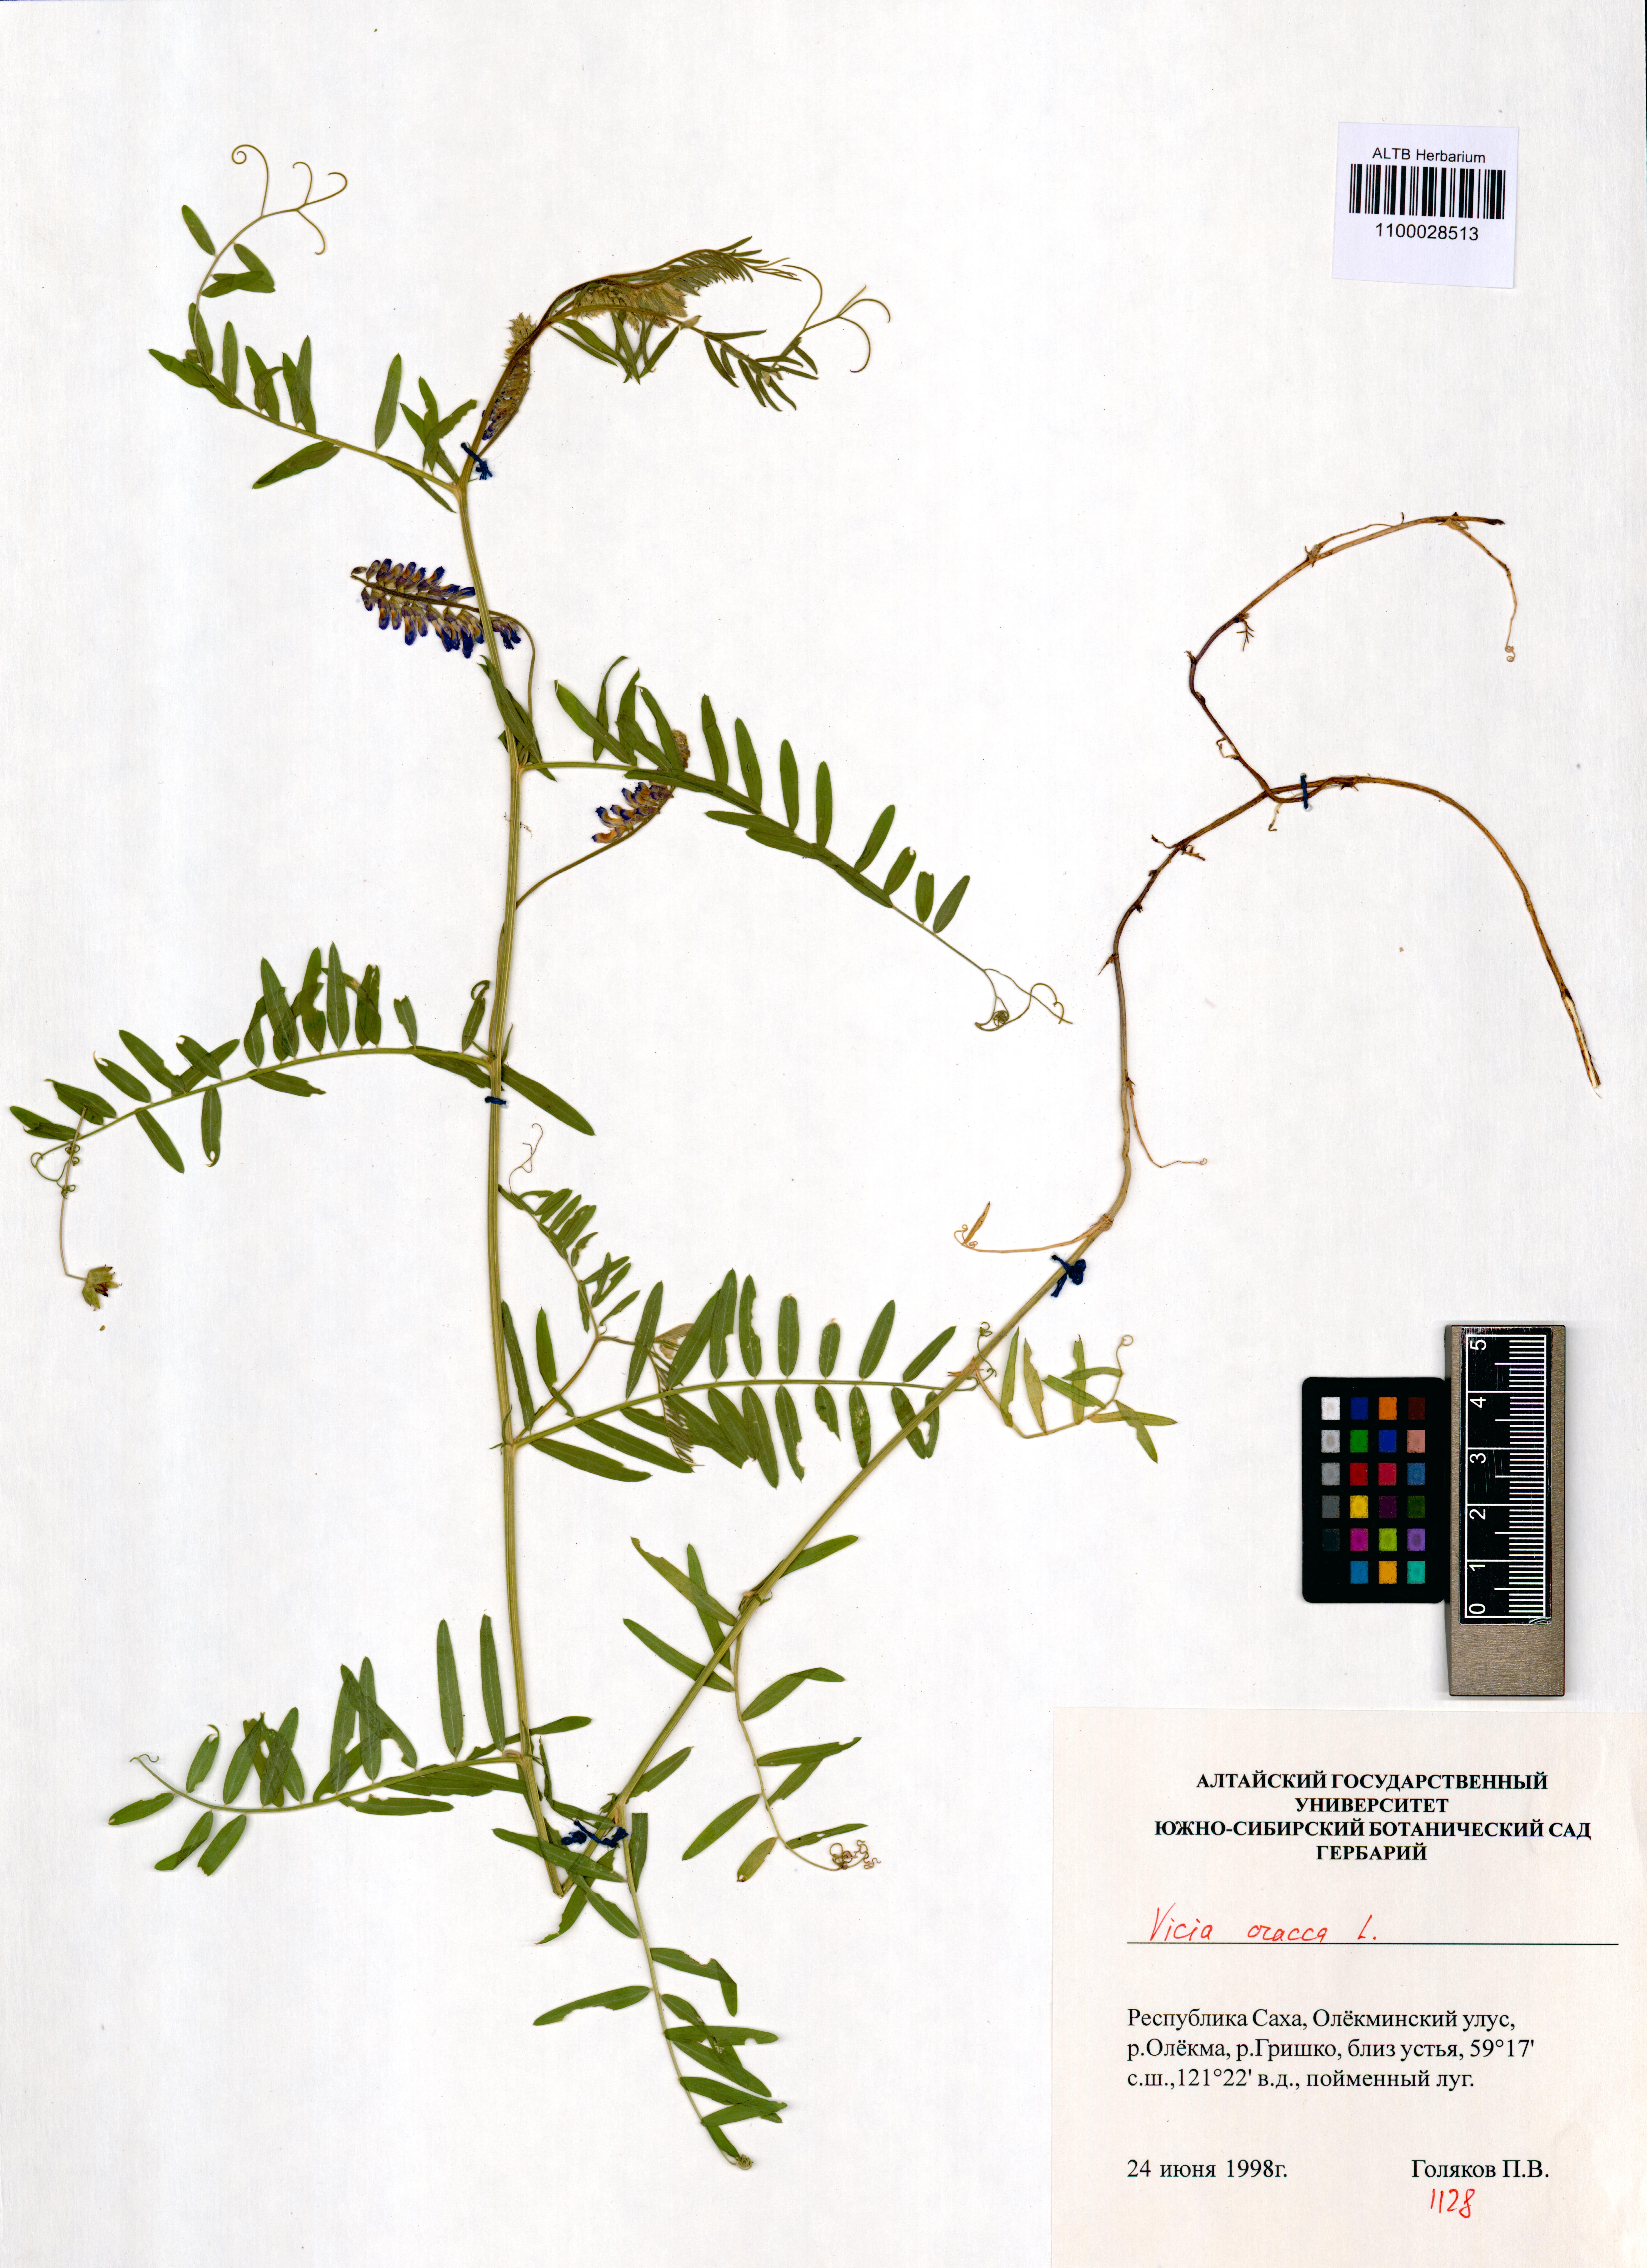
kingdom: Plantae
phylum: Tracheophyta
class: Magnoliopsida
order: Fabales
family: Fabaceae
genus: Vicia
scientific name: Vicia cracca
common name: Bird vetch
